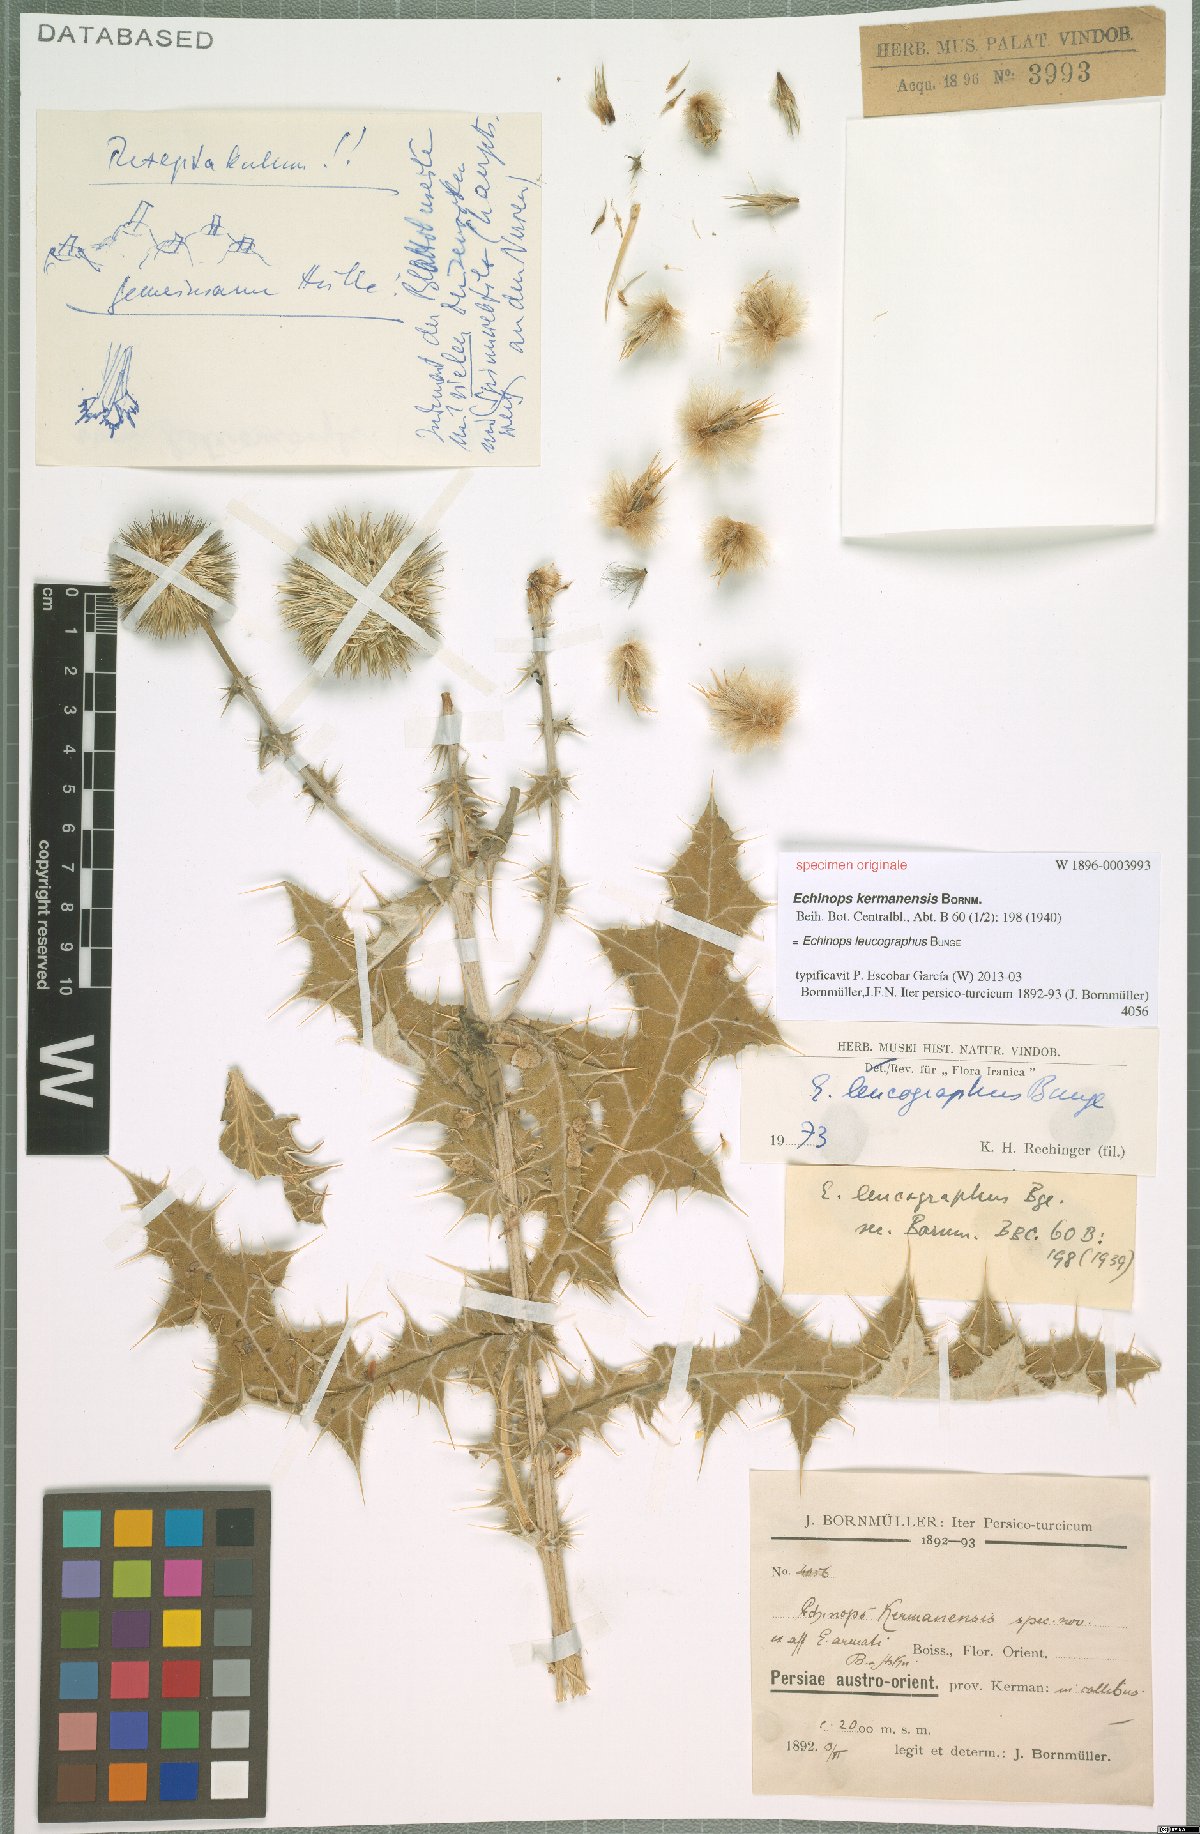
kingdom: Plantae
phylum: Tracheophyta
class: Magnoliopsida
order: Asterales
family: Asteraceae
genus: Echinops
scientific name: Echinops leucographus
